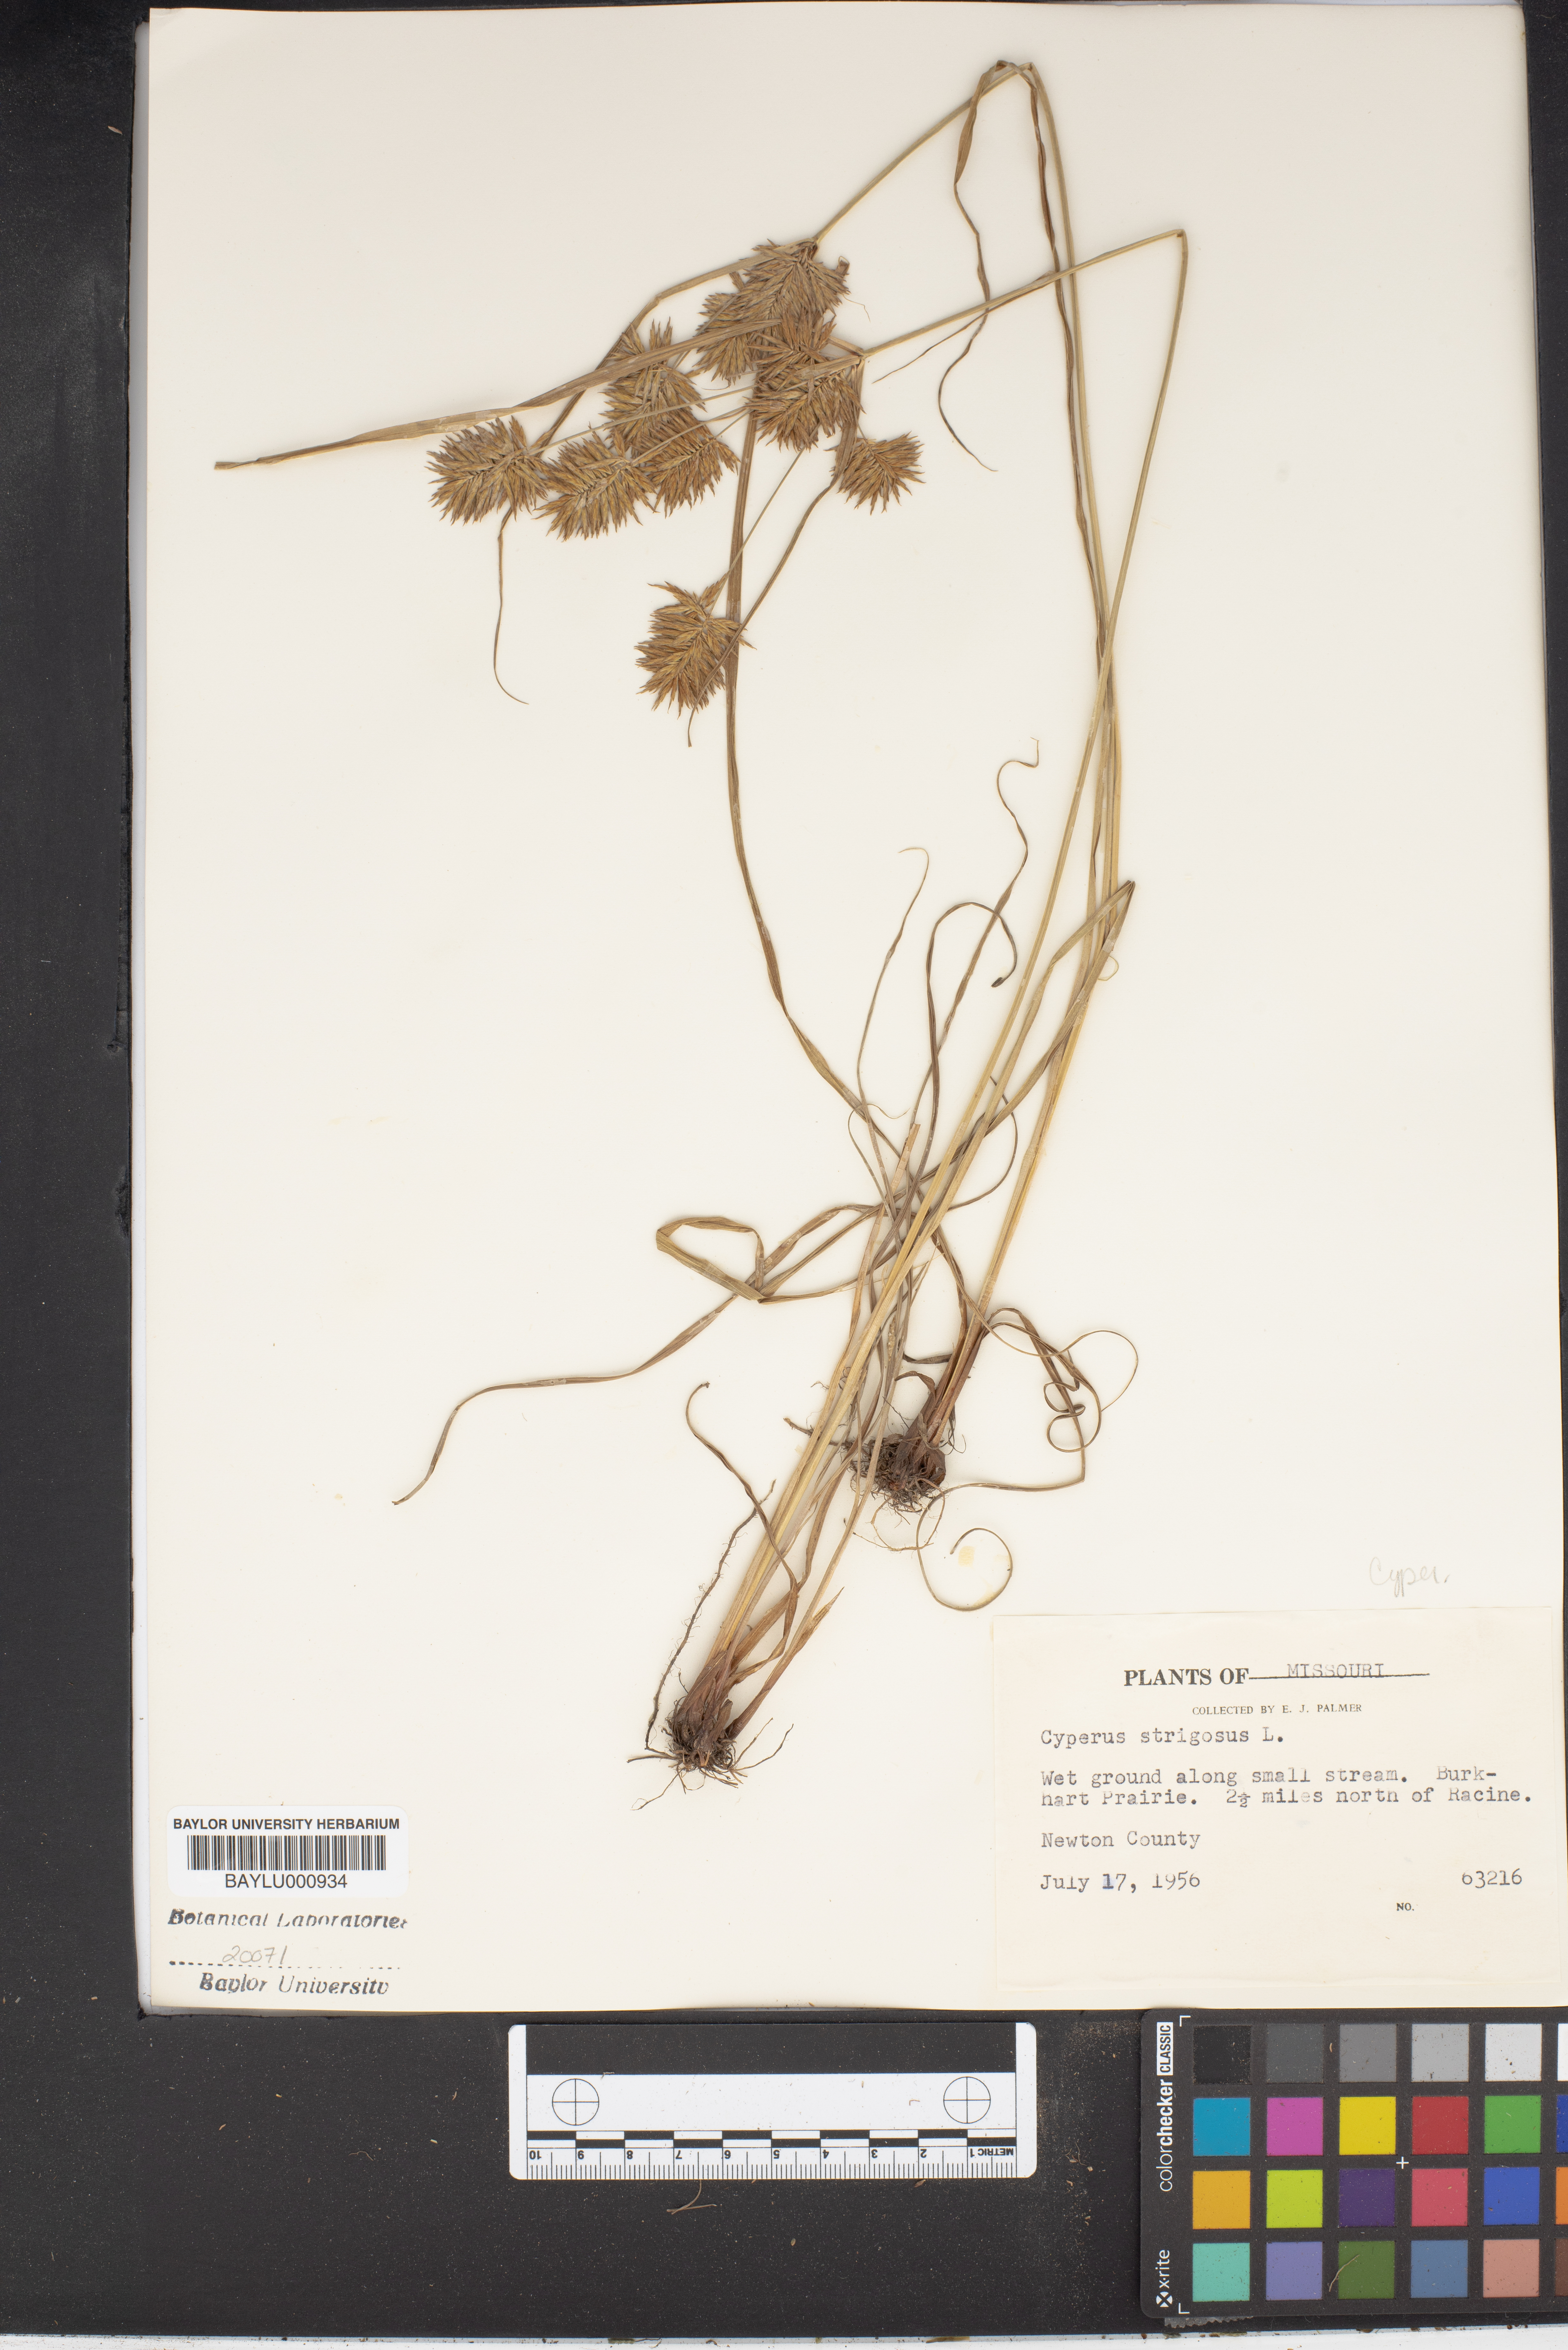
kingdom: Plantae
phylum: Tracheophyta
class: Liliopsida
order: Poales
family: Cyperaceae
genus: Cyperus
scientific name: Cyperus strigosus
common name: False nutsedge
